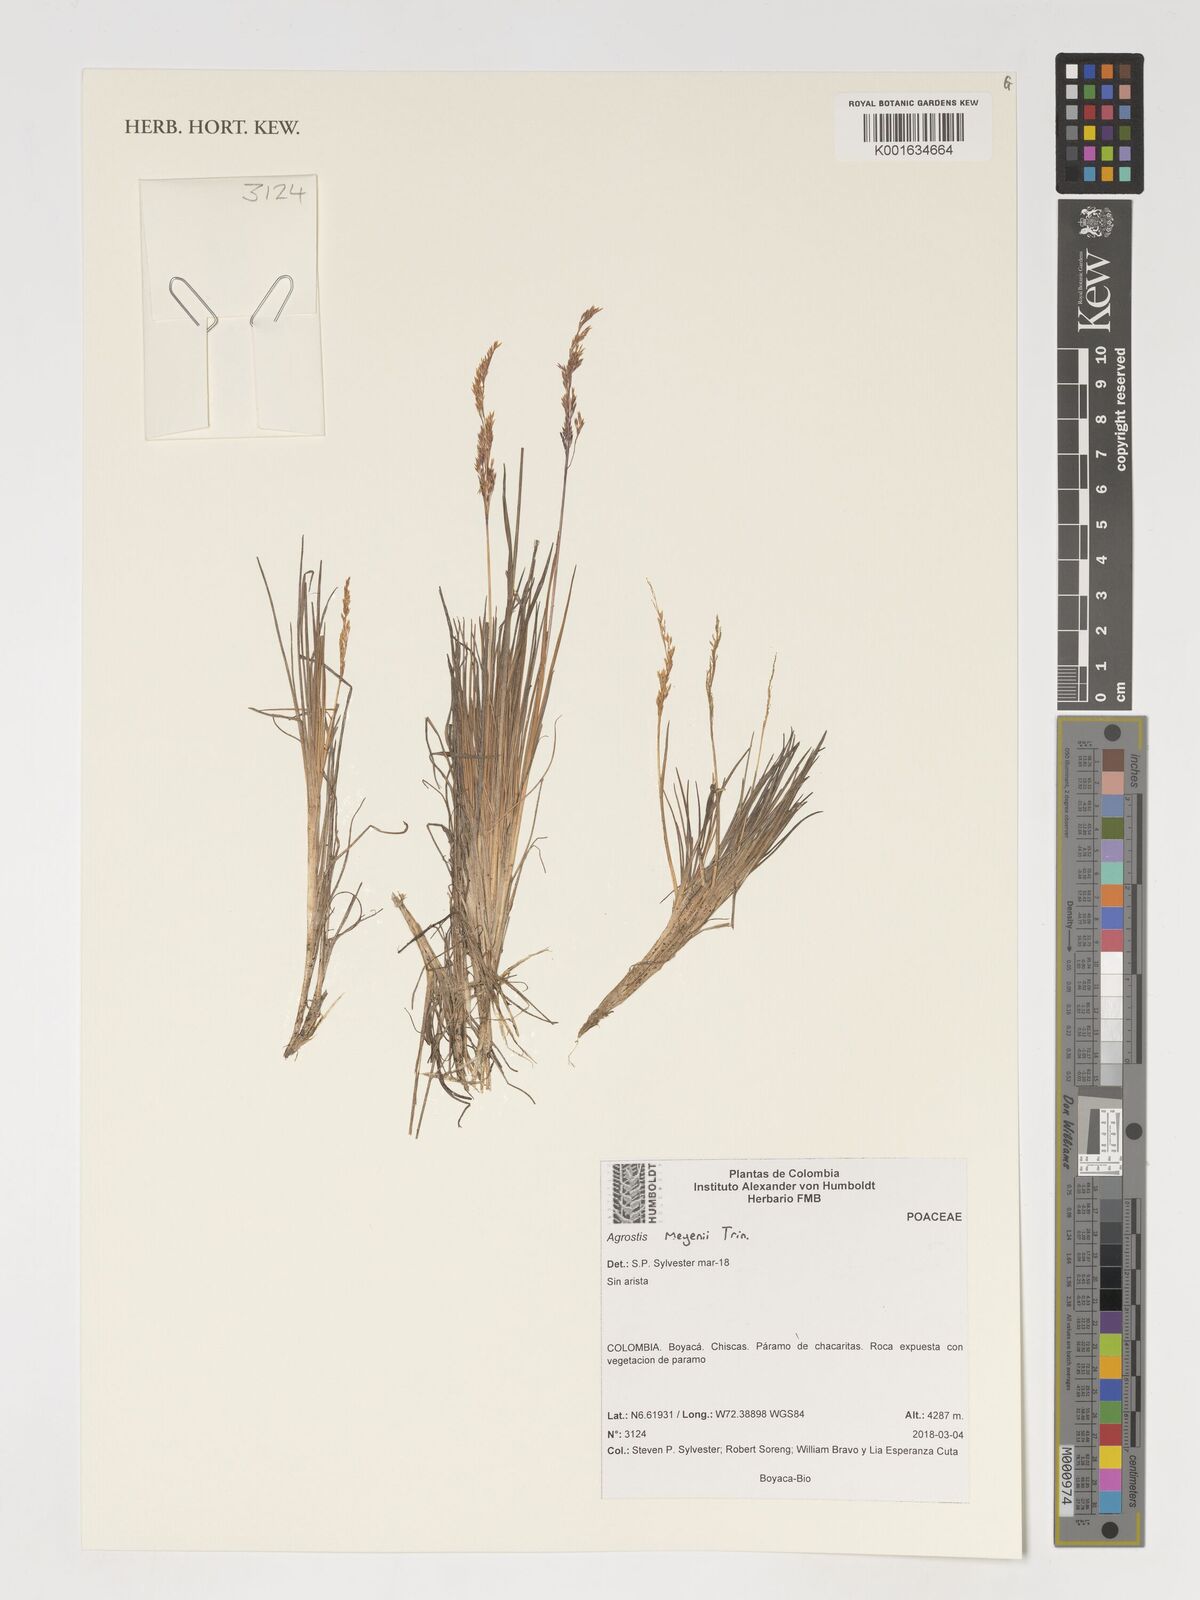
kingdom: Plantae
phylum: Tracheophyta
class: Liliopsida
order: Poales
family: Poaceae
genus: Agrostis
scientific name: Agrostis meyenii
